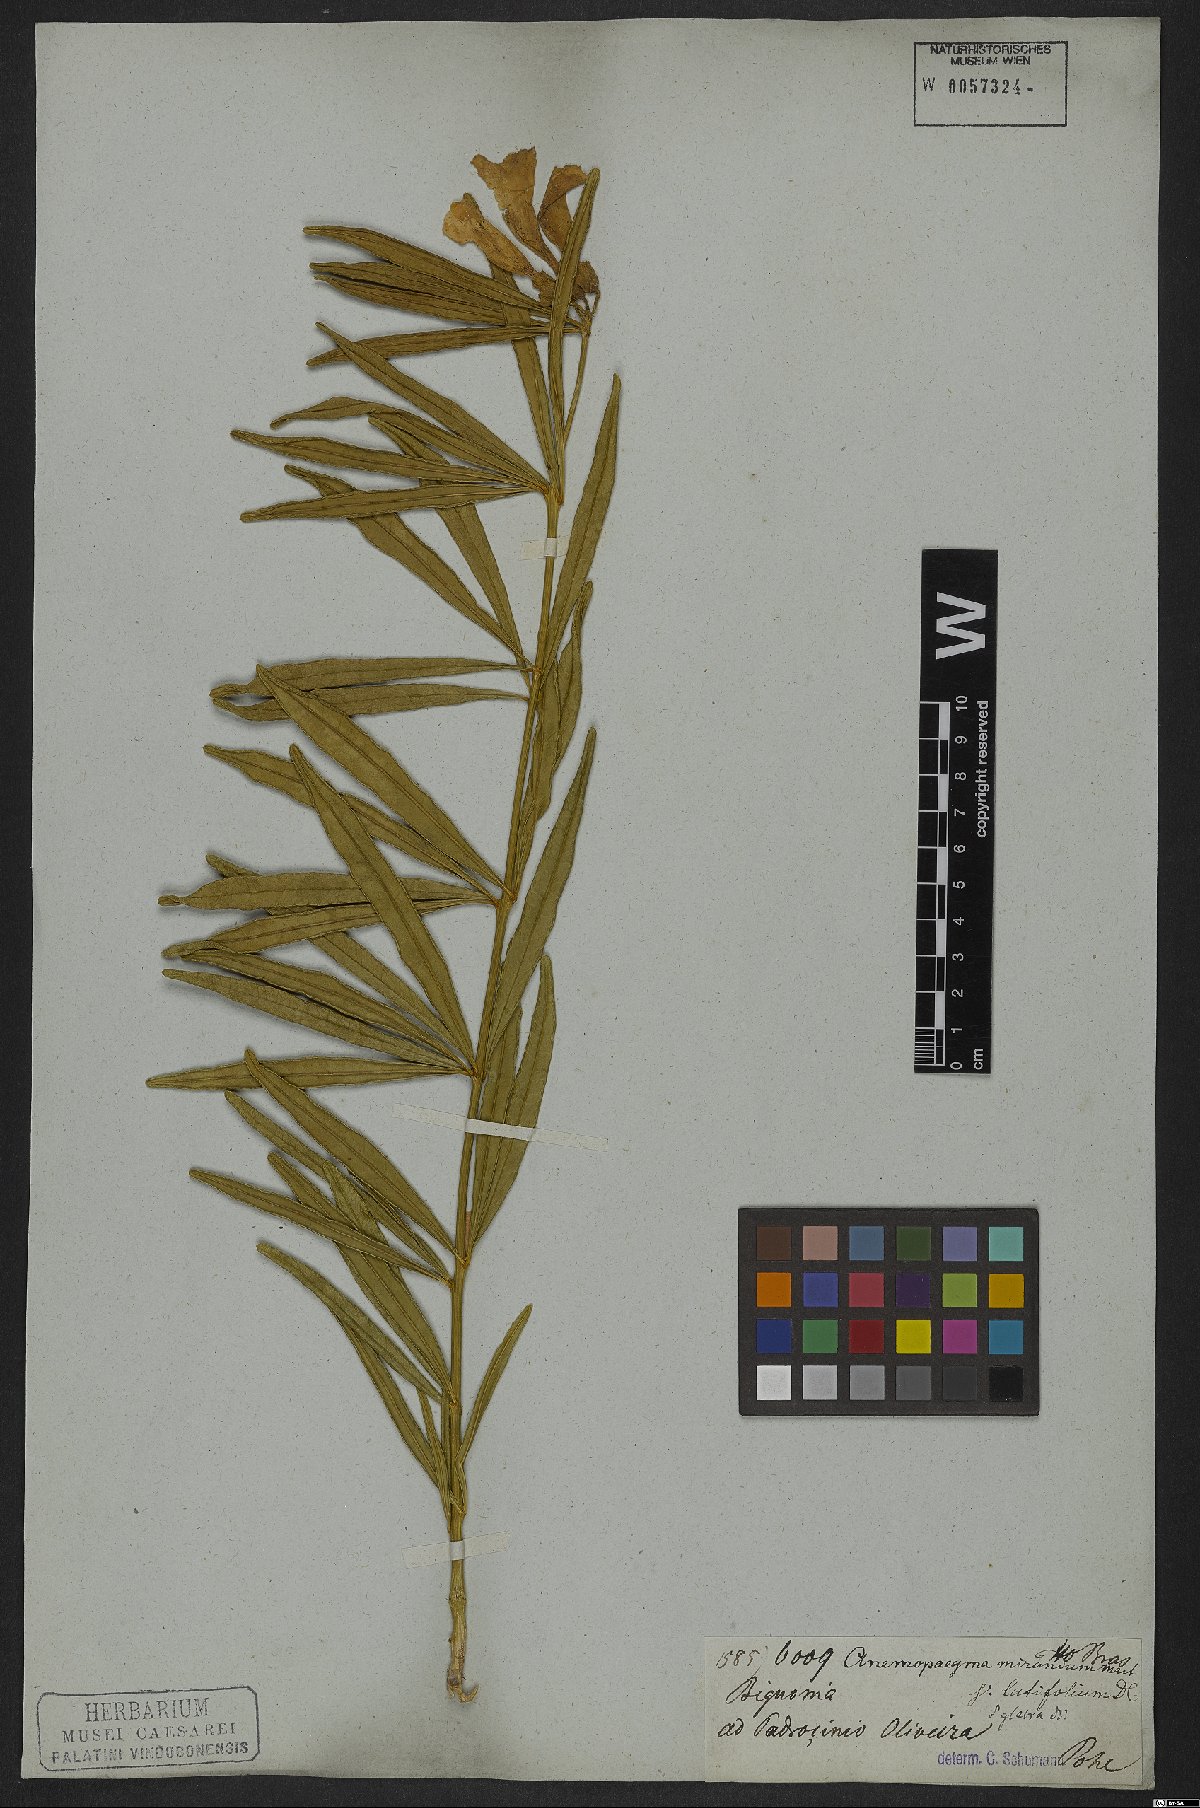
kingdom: Plantae
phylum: Tracheophyta
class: Magnoliopsida
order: Lamiales
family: Bignoniaceae
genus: Anemopaegma
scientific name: Anemopaegma arvense
